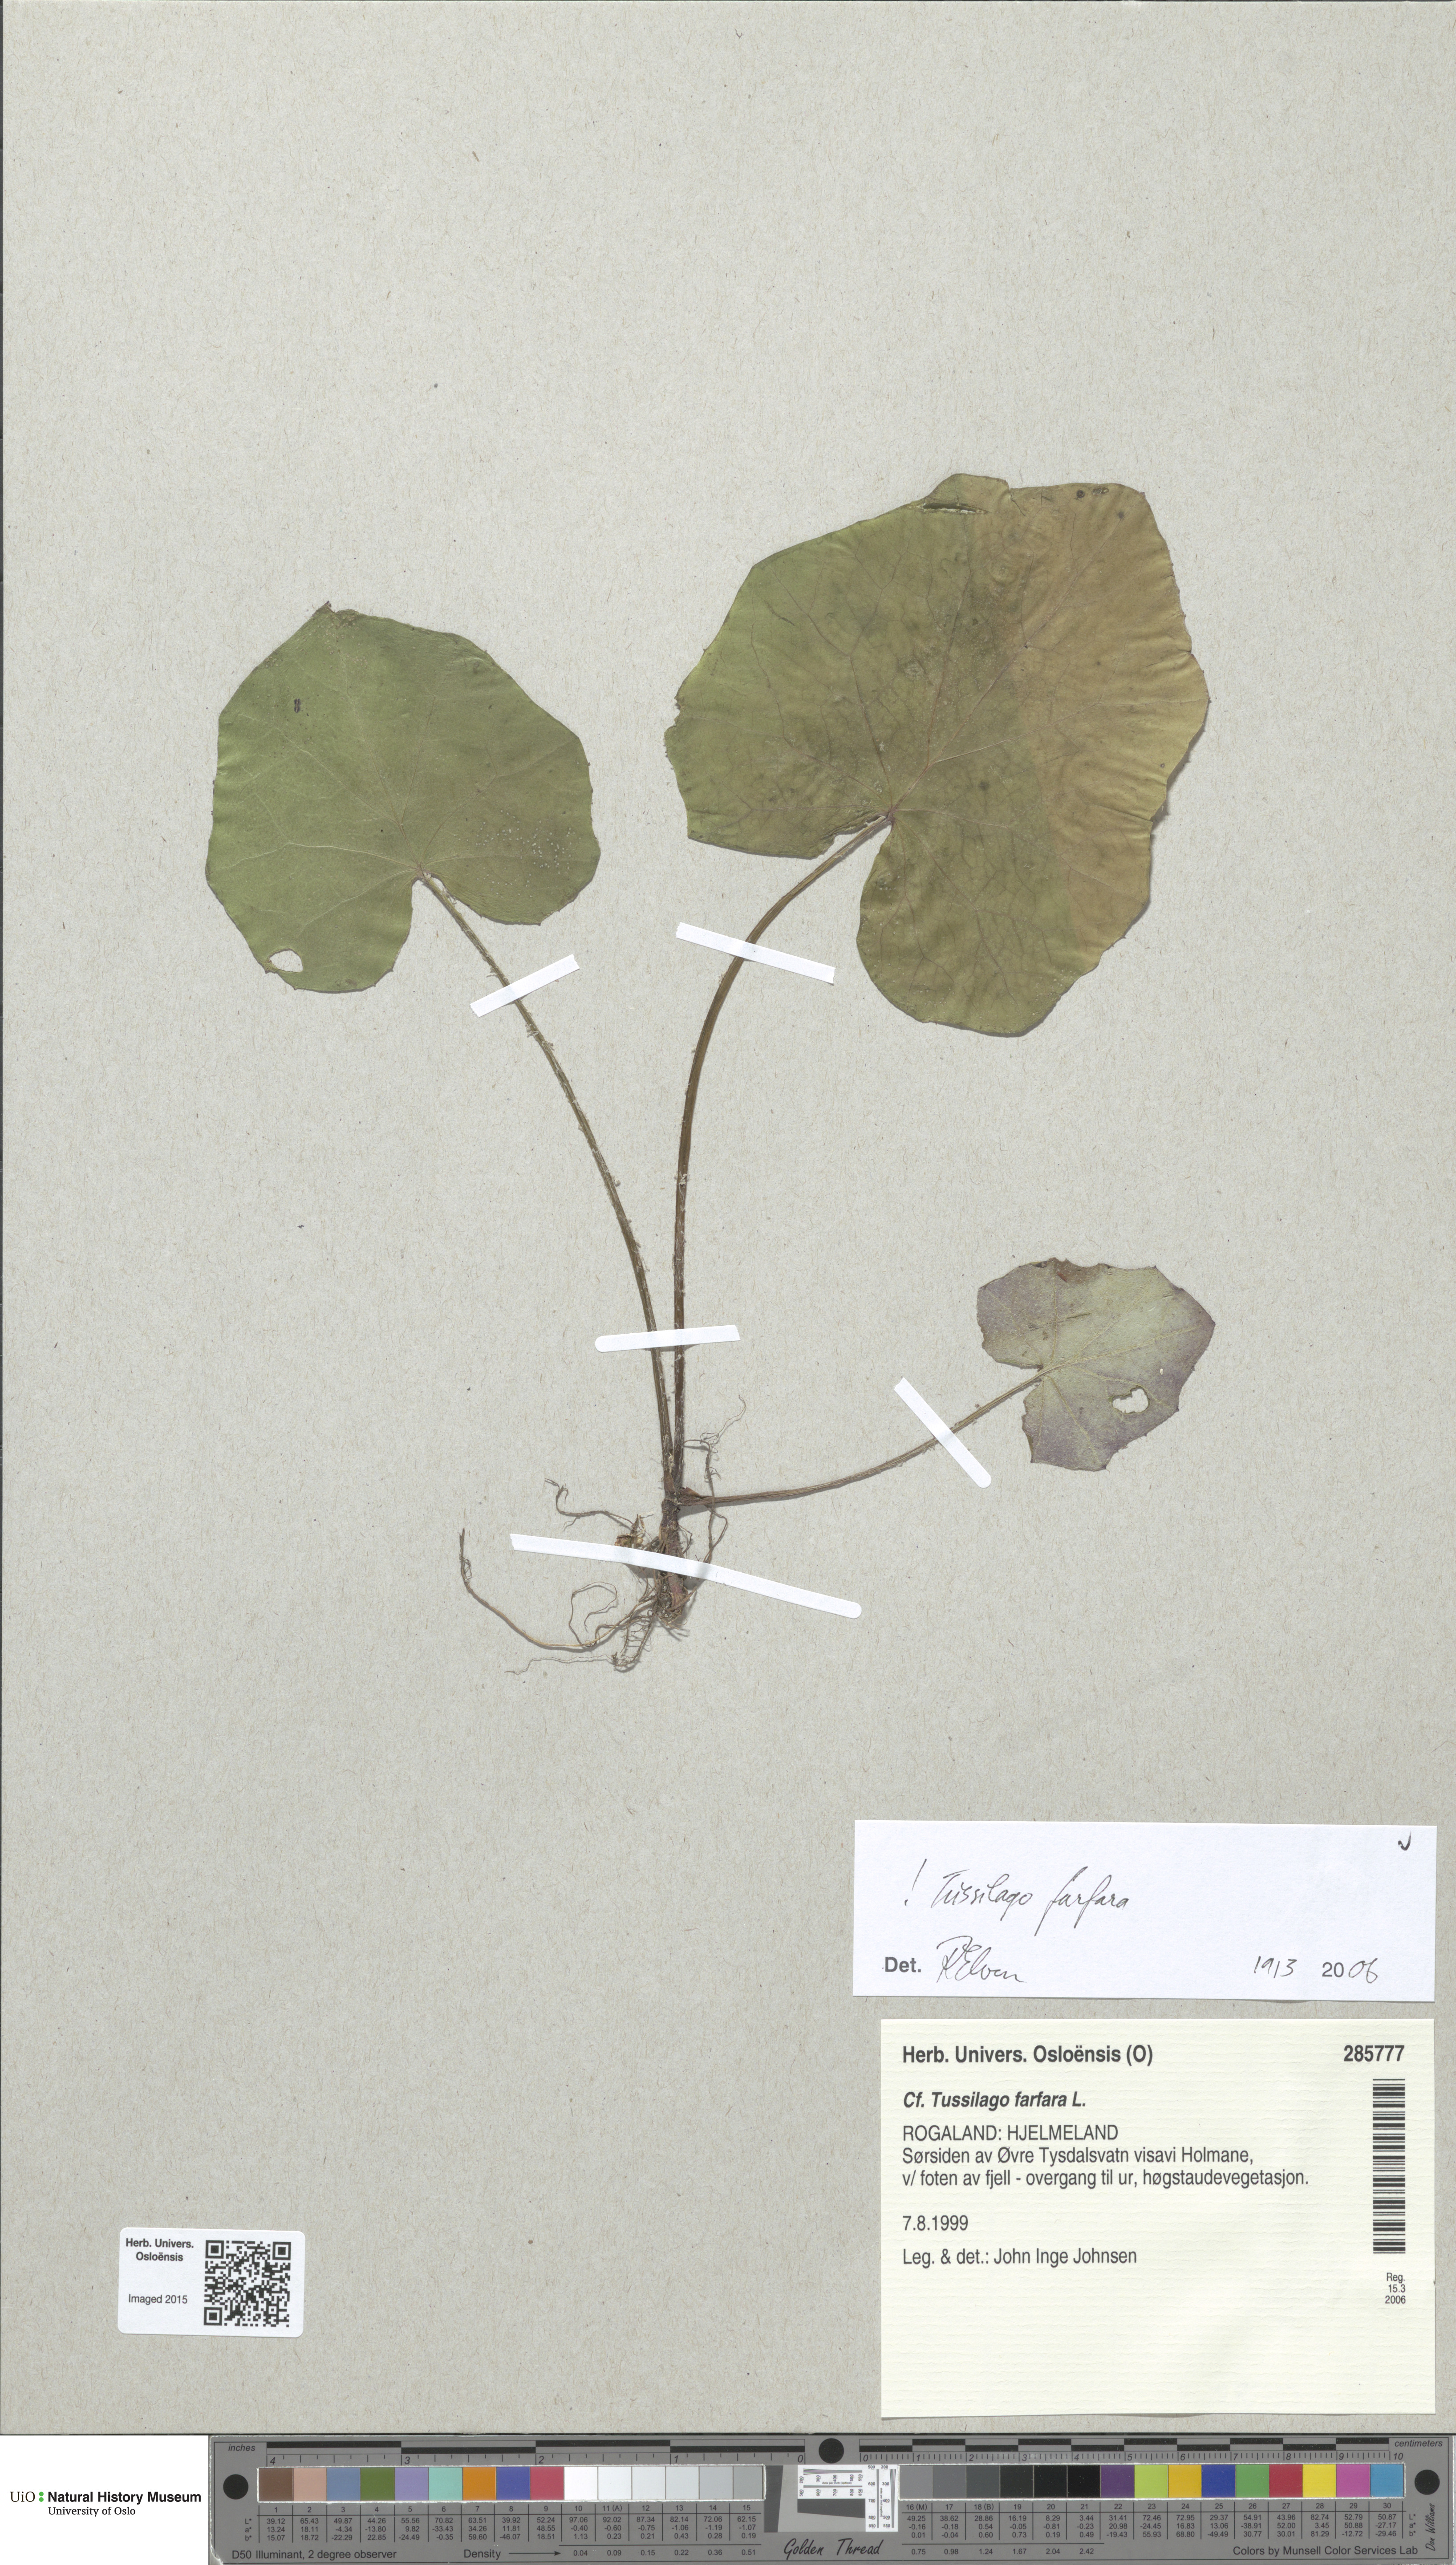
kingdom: Plantae
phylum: Tracheophyta
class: Magnoliopsida
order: Asterales
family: Asteraceae
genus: Tussilago
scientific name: Tussilago farfara
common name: Coltsfoot
